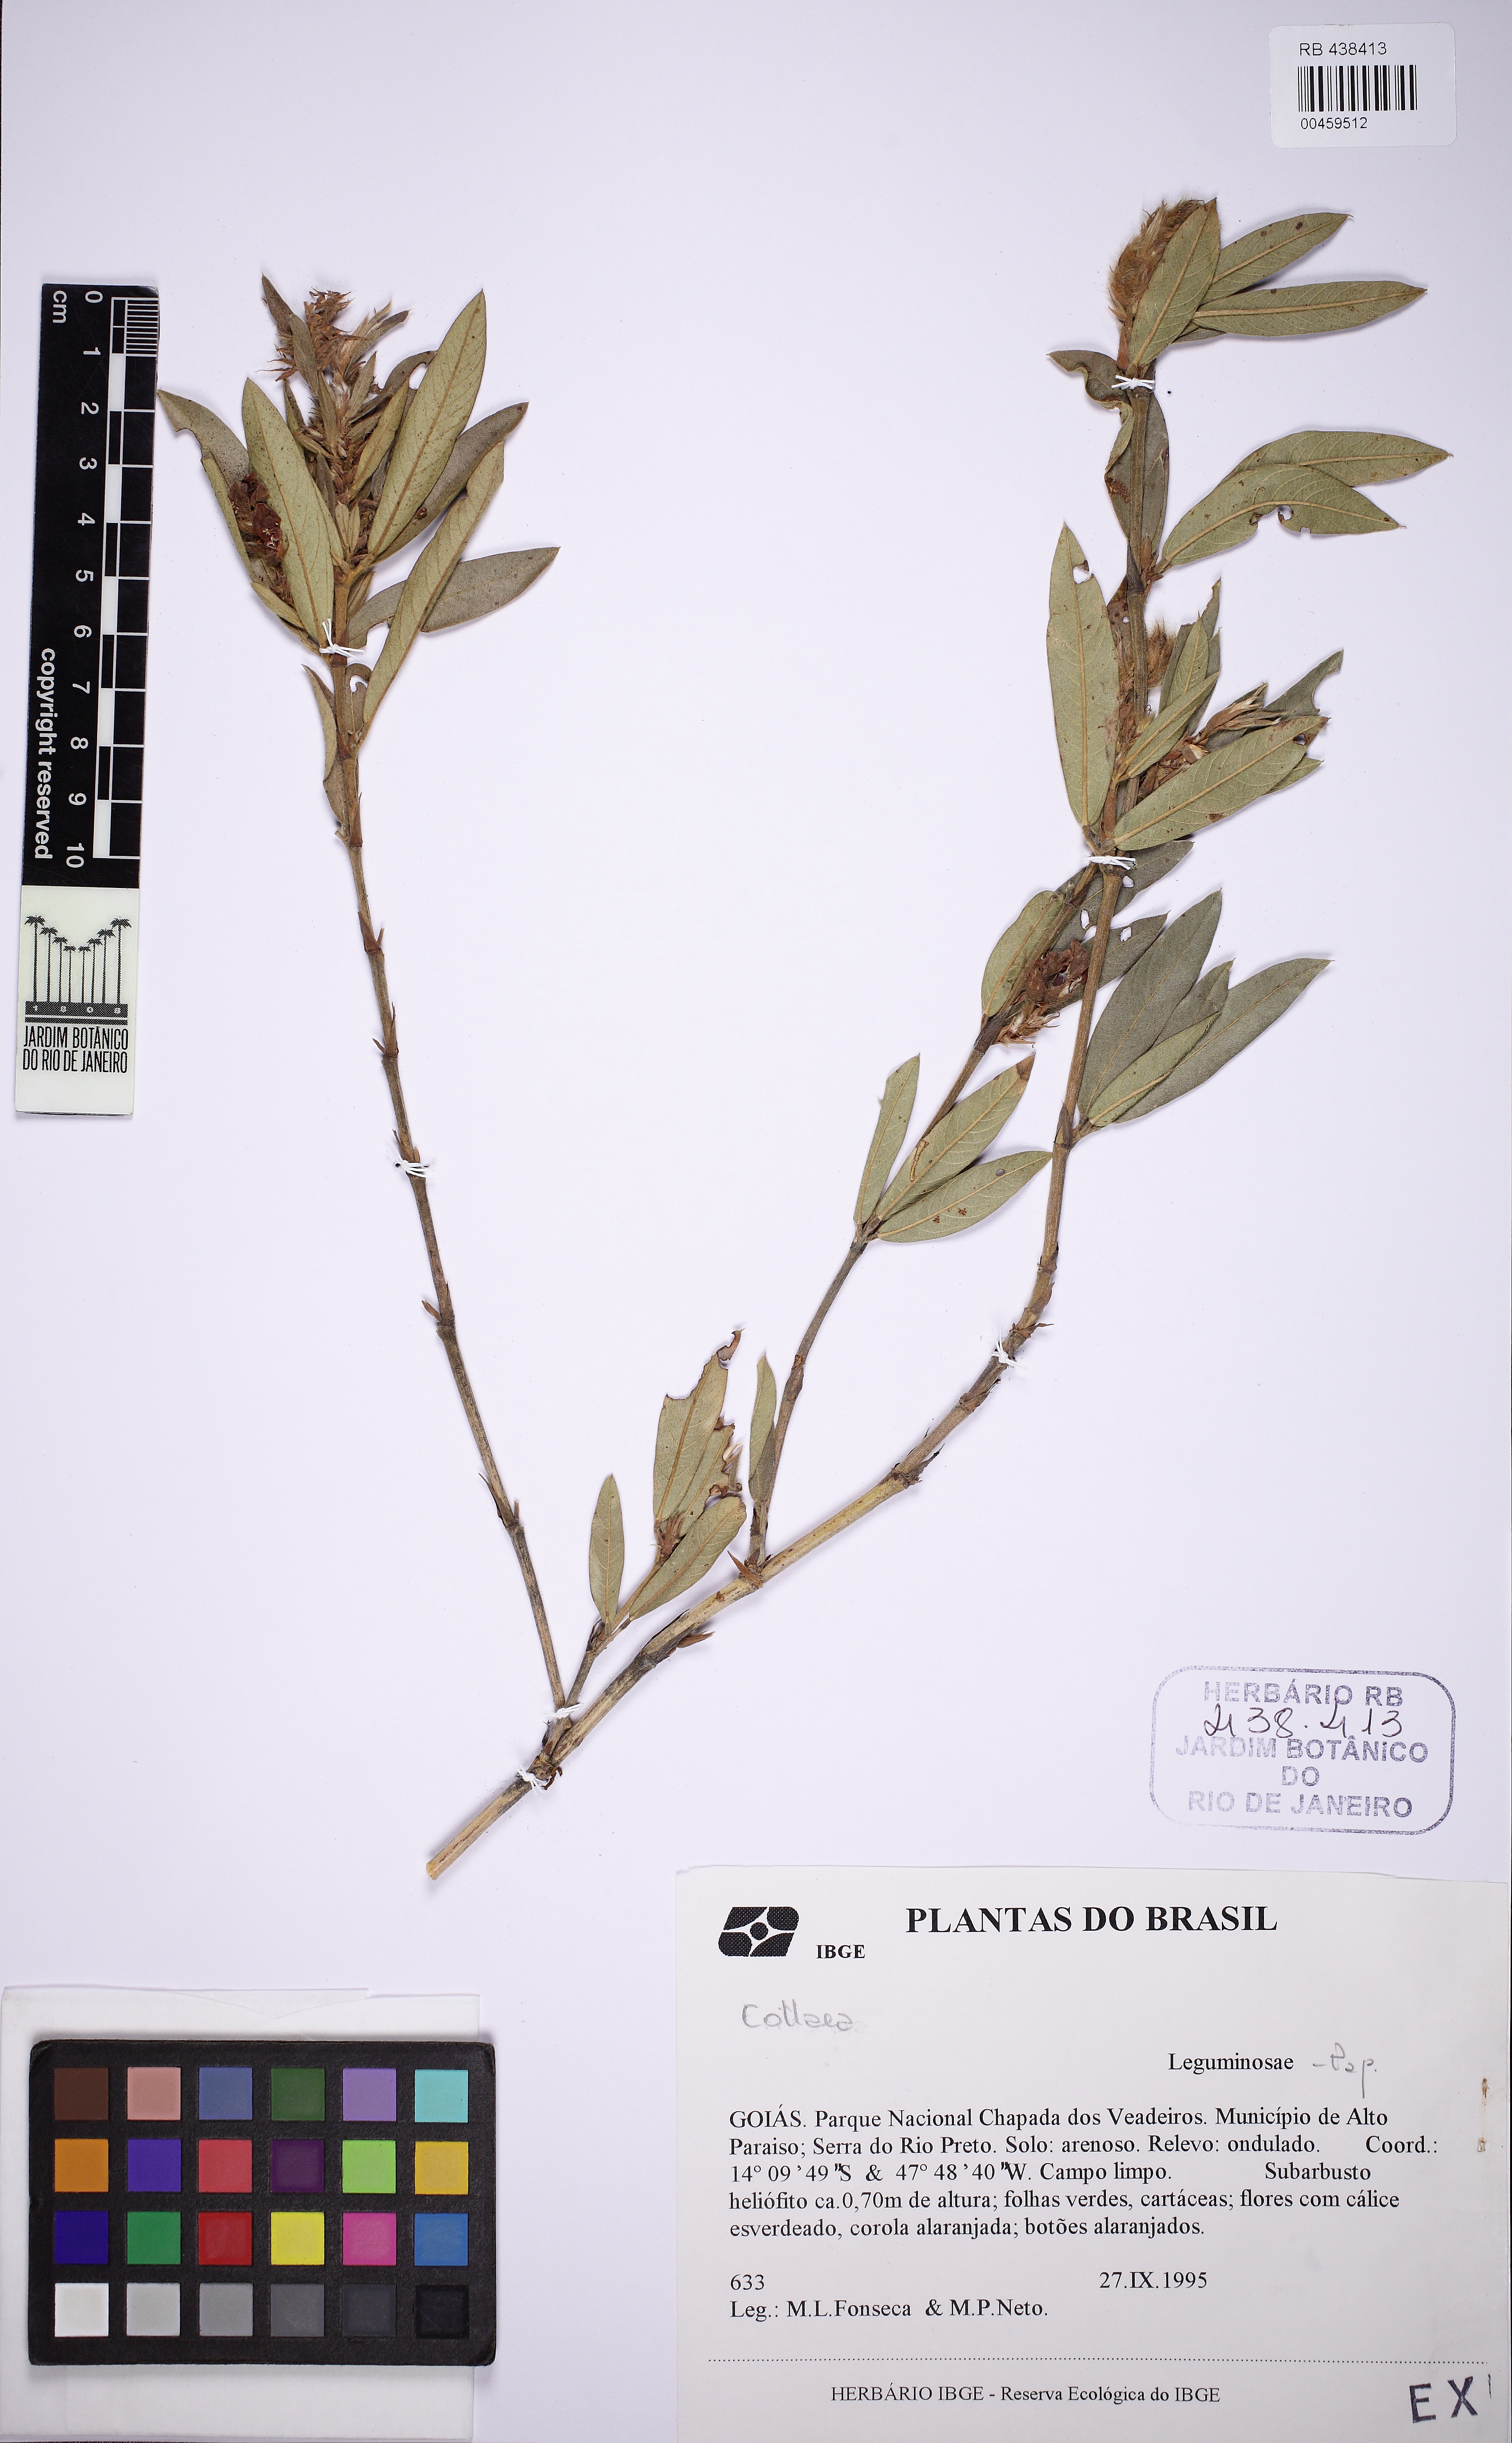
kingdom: Plantae
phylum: Tracheophyta
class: Magnoliopsida
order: Fabales
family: Fabaceae
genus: Eriosema
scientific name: Eriosema irwinii
